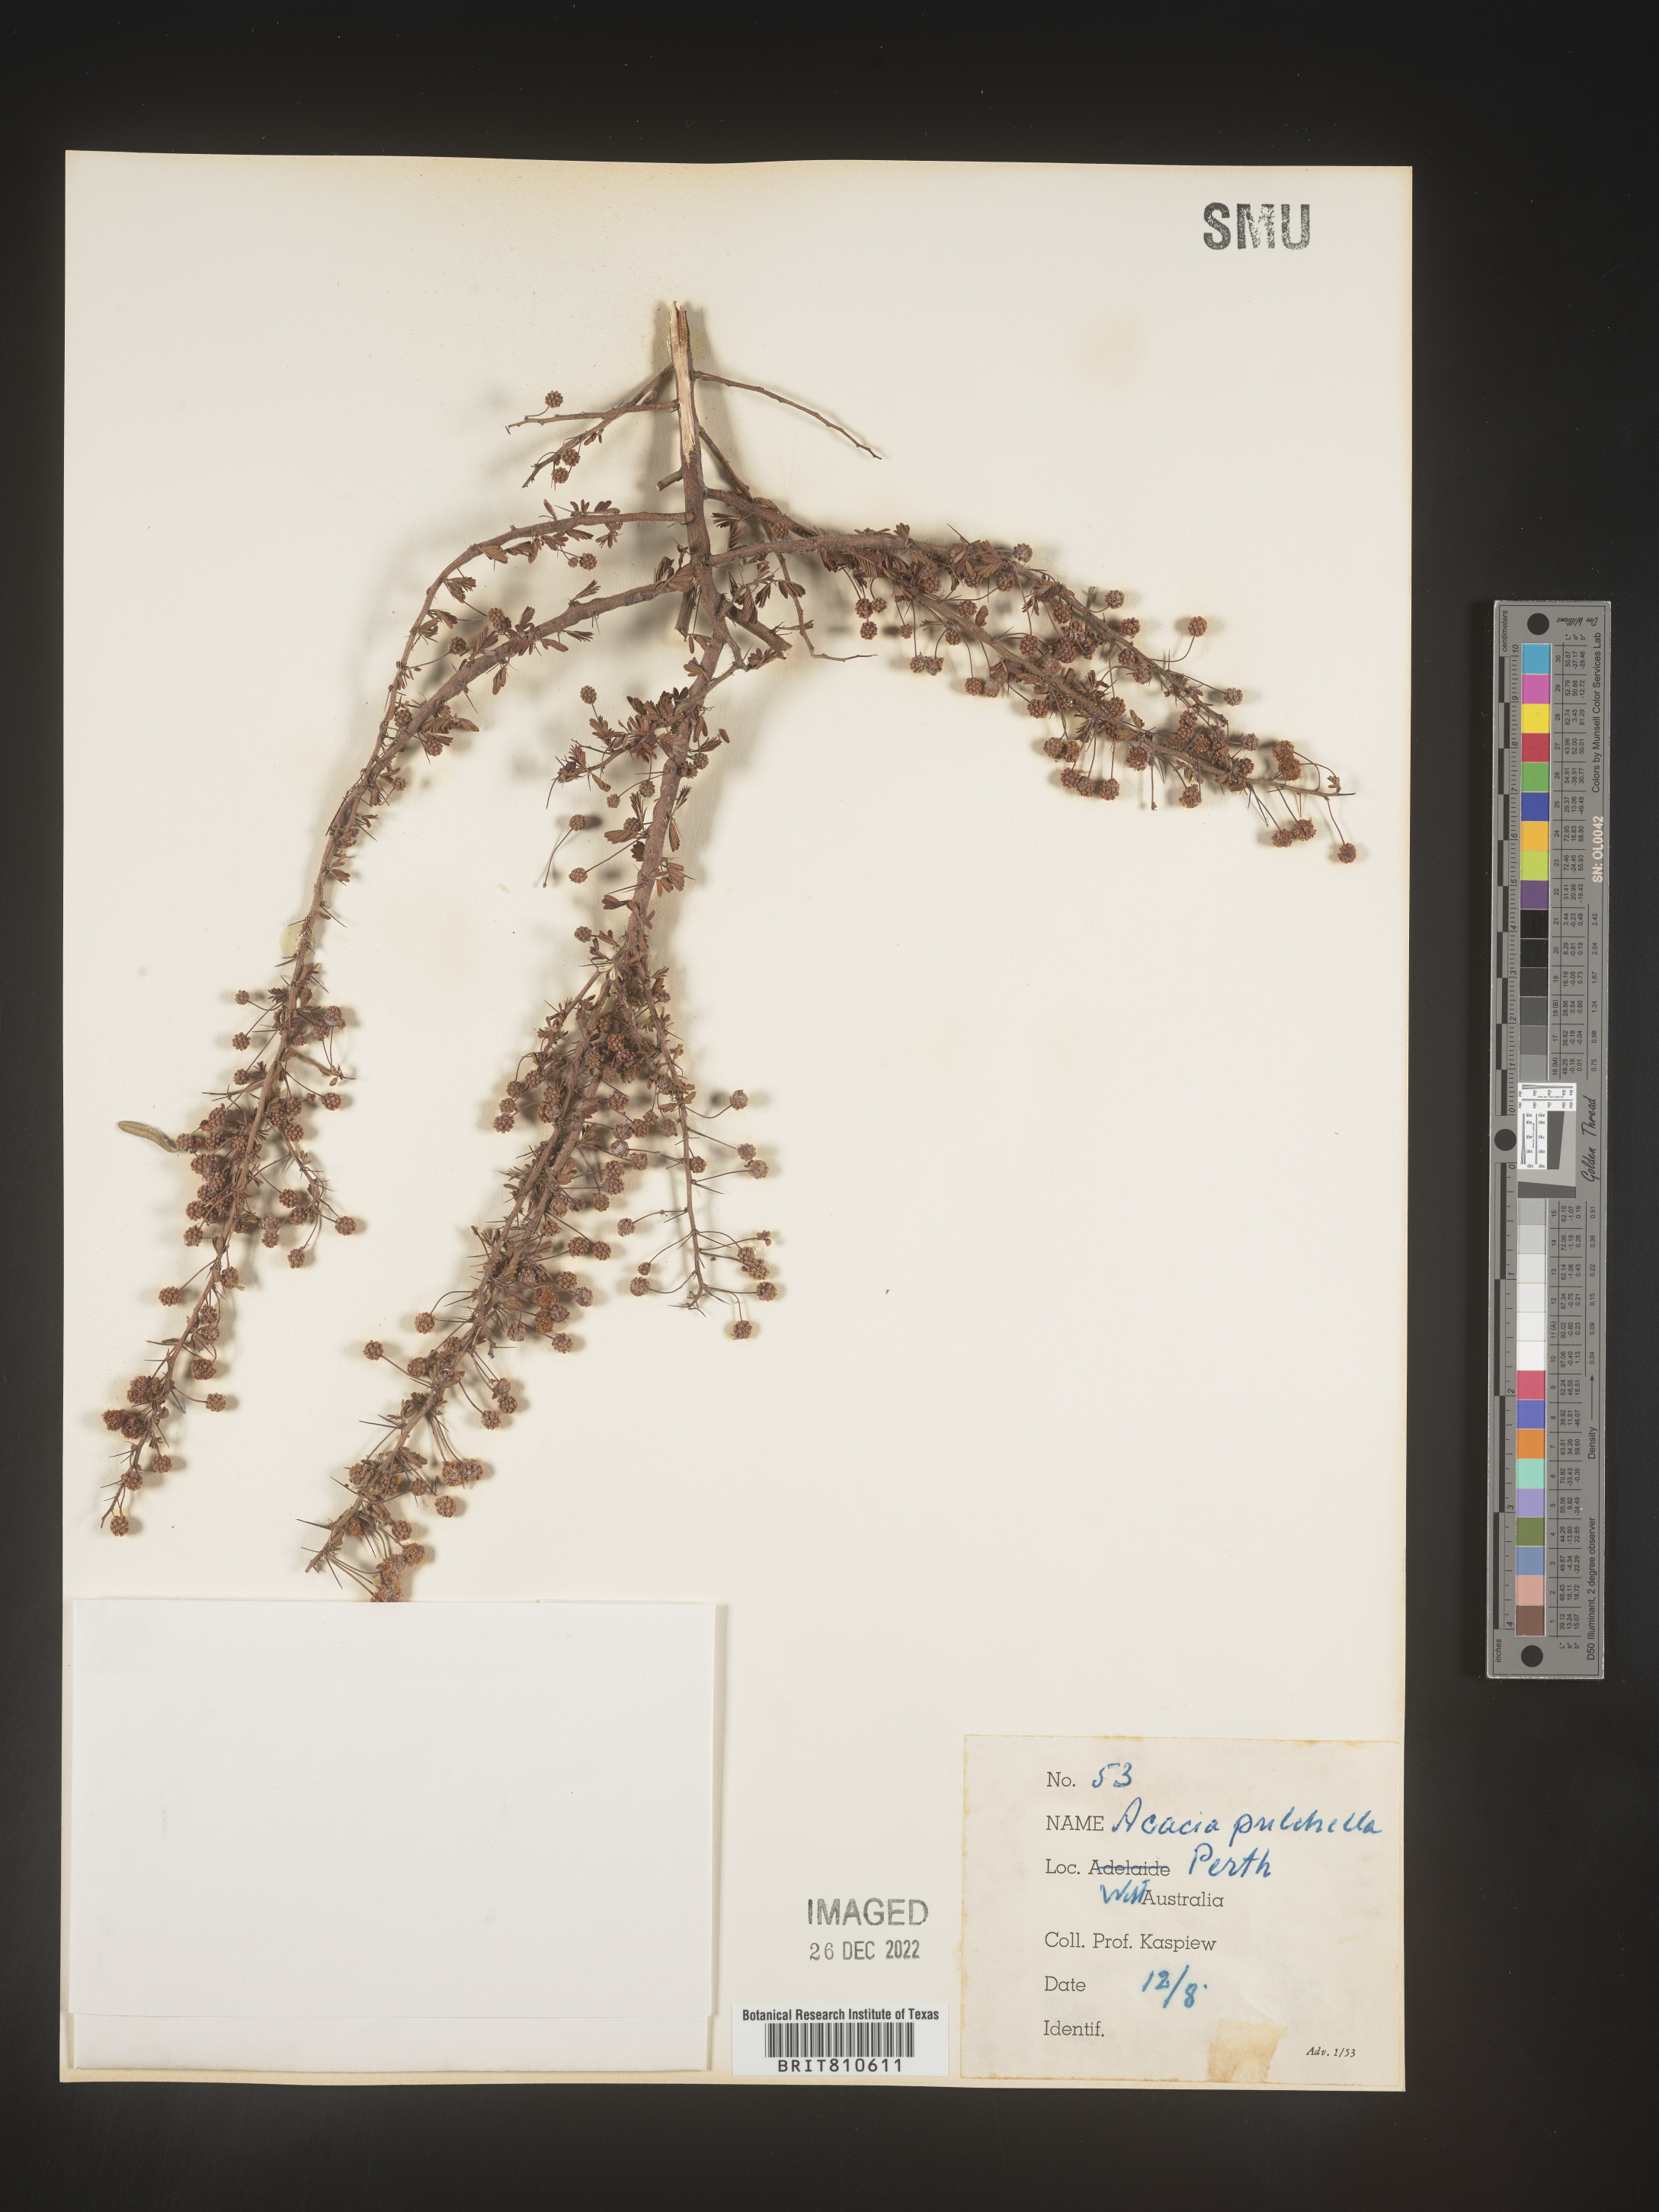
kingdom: Plantae
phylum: Tracheophyta
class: Magnoliopsida
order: Fabales
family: Fabaceae
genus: Acacia
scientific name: Acacia
